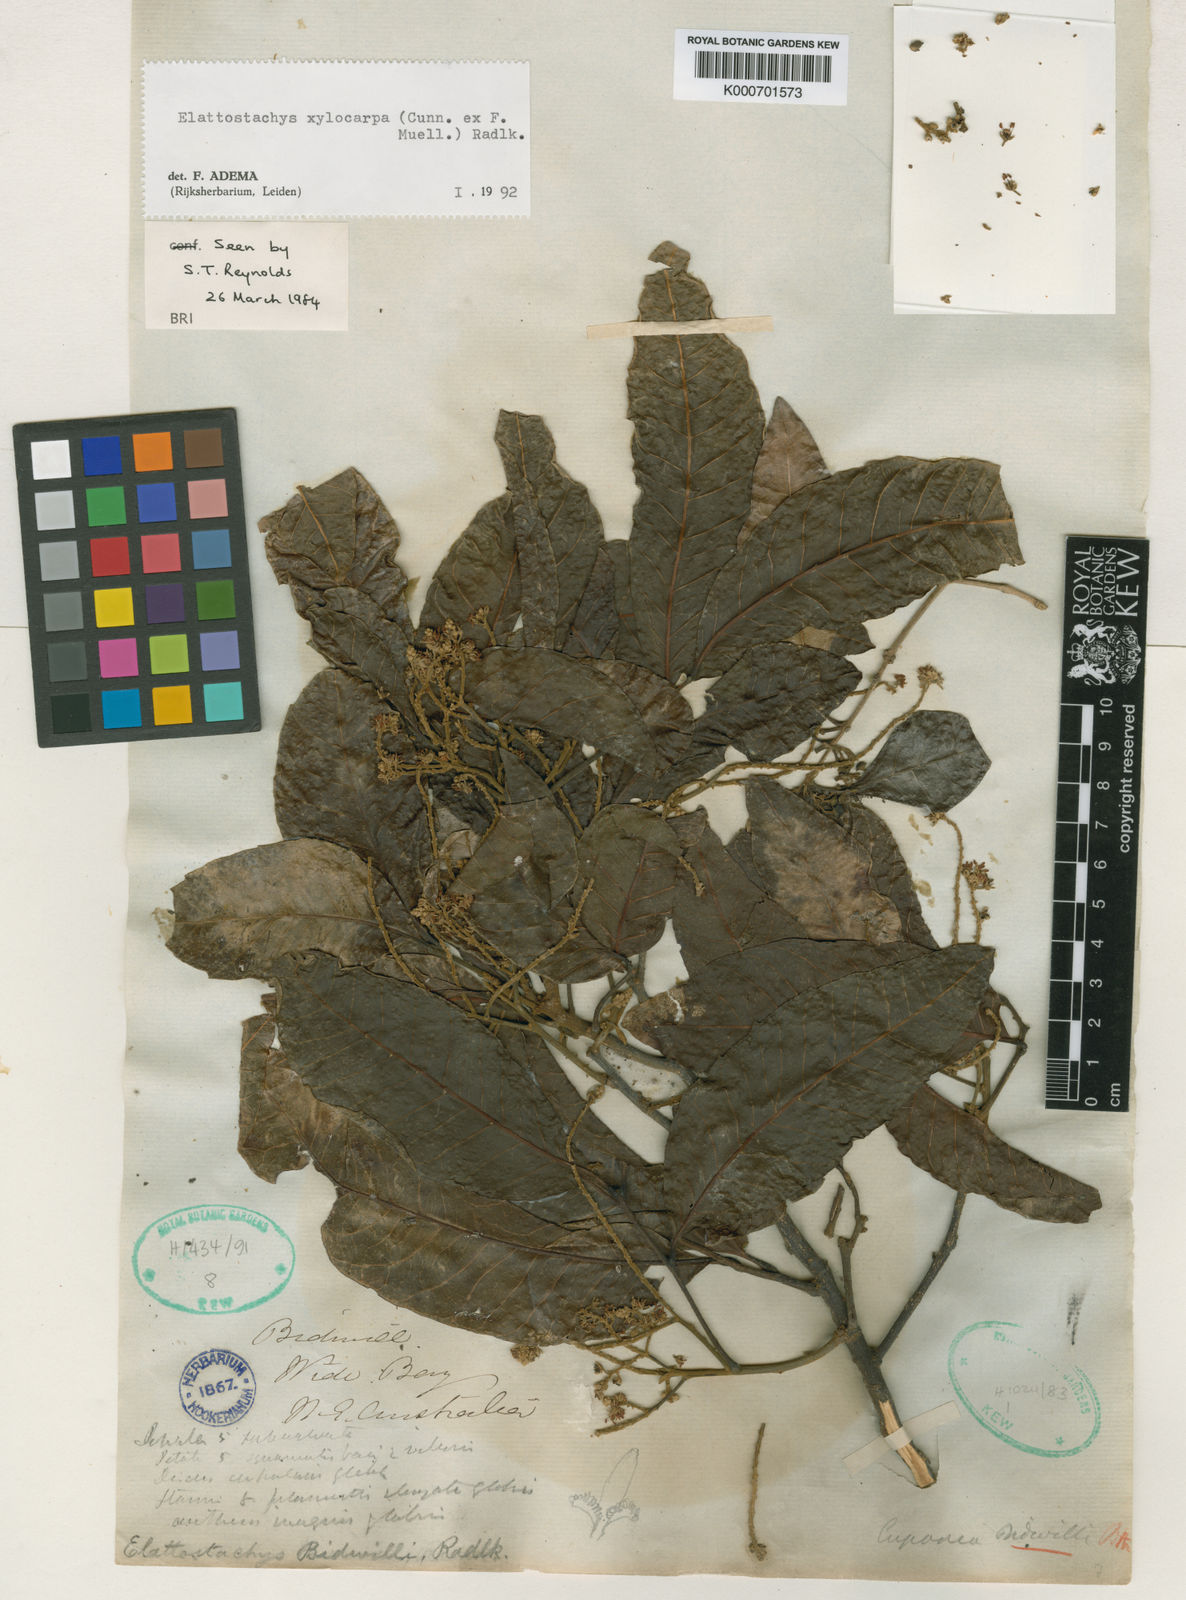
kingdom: Plantae
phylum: Tracheophyta
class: Magnoliopsida
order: Sapindales
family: Sapindaceae
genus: Elattostachys
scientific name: Elattostachys xylocarpa
